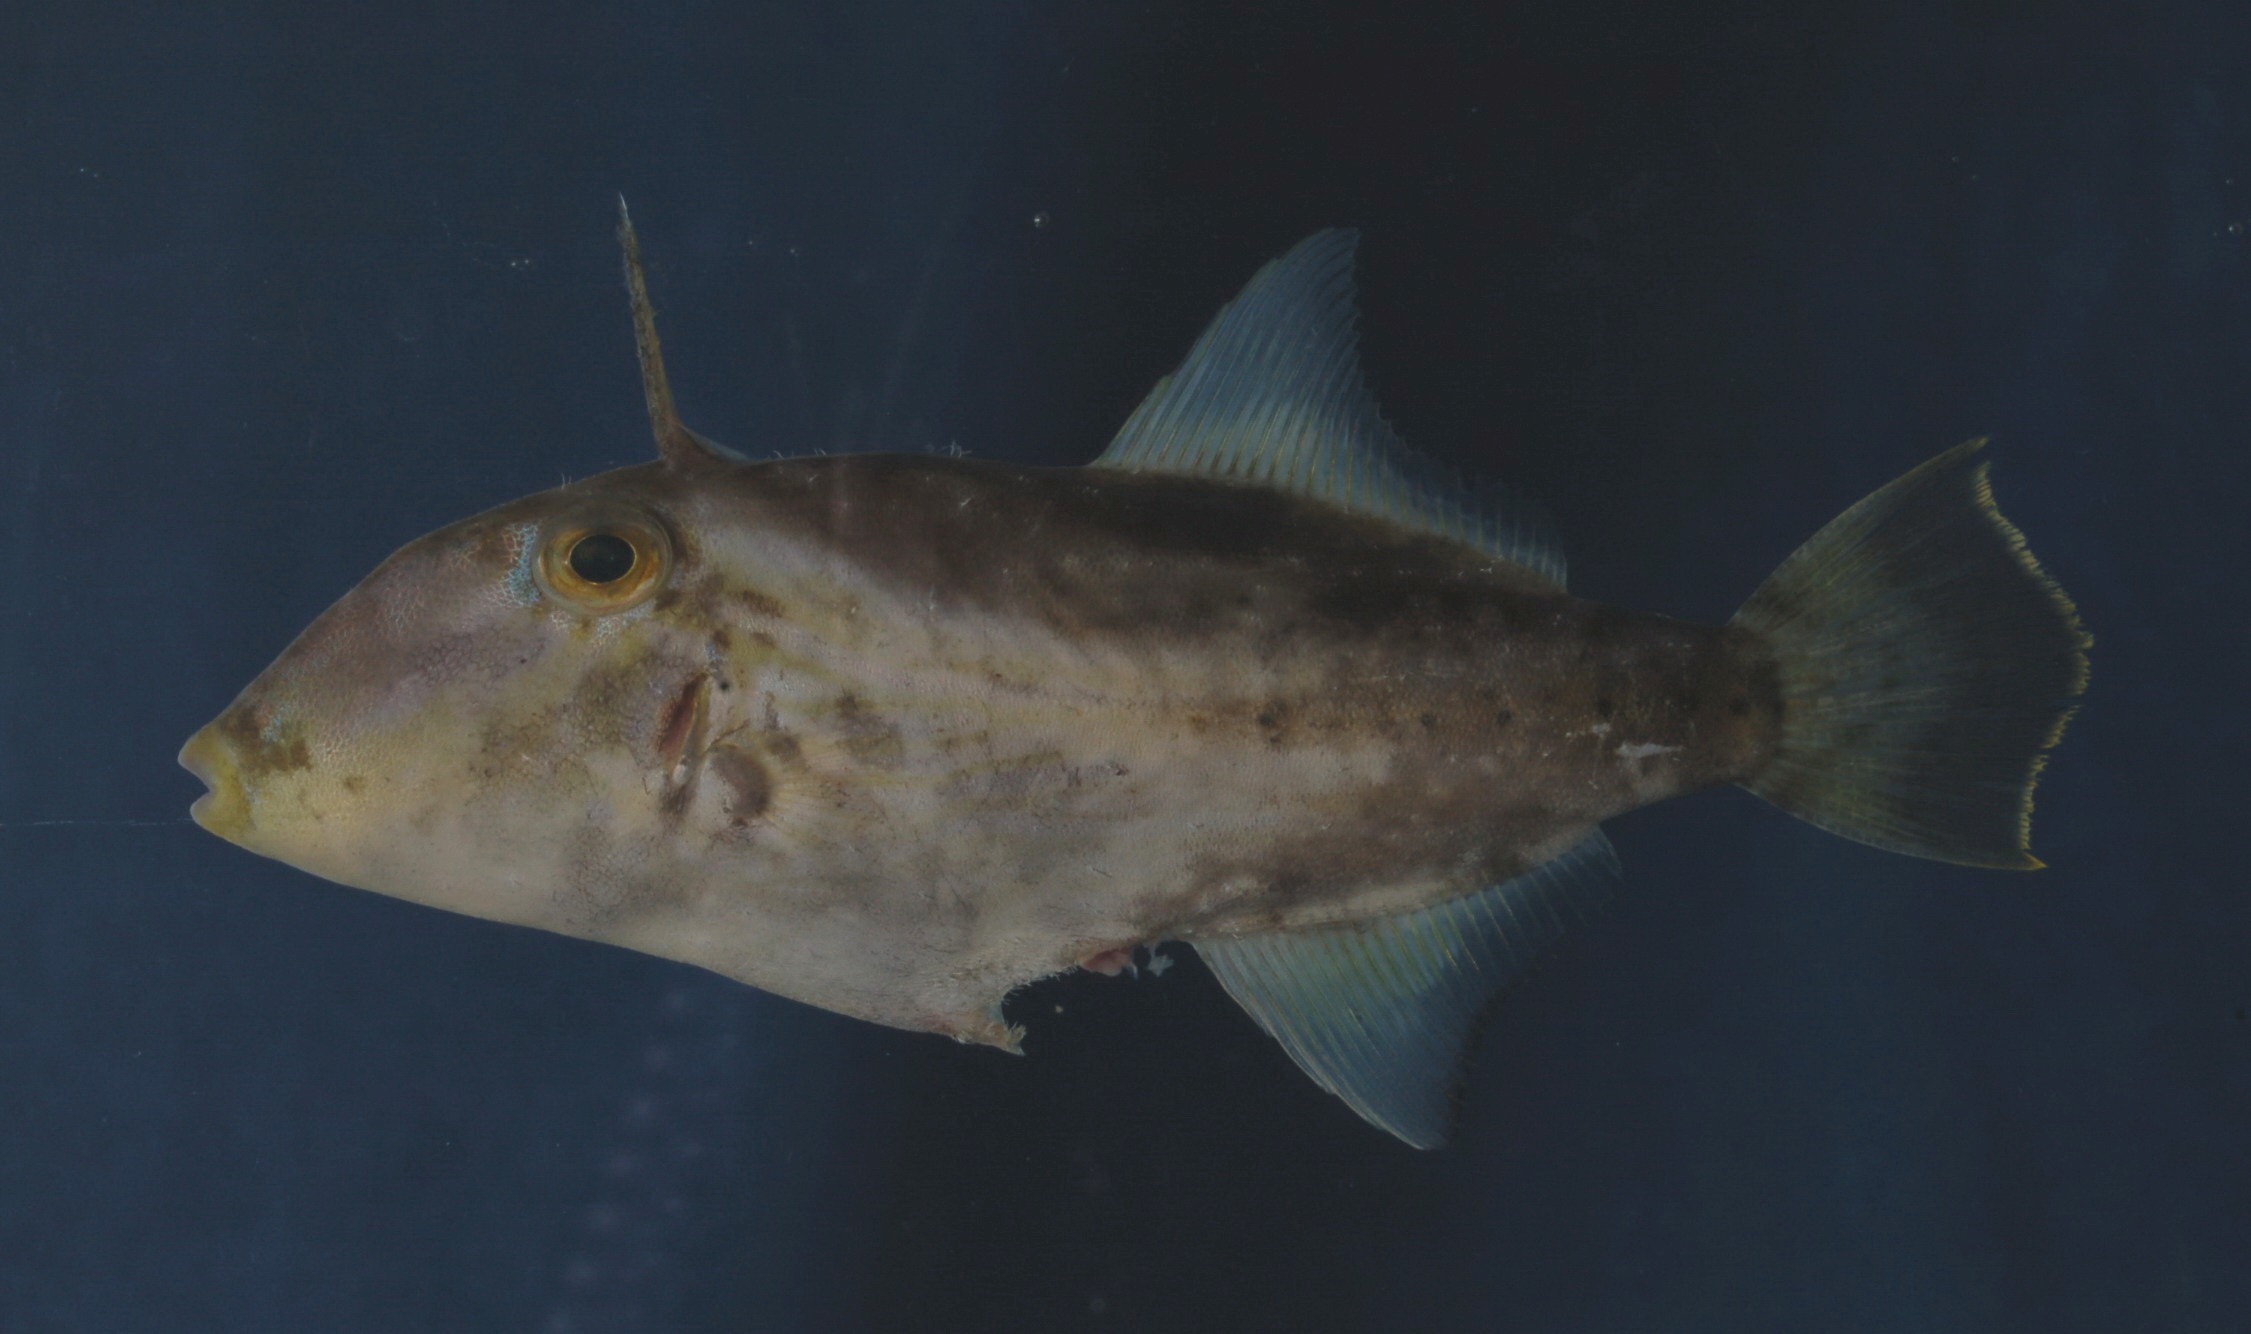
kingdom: Animalia
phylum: Chordata
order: Tetraodontiformes
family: Monacanthidae
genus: Paramonacanthus
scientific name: Paramonacanthus pusillus
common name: Faintstripe filefish
